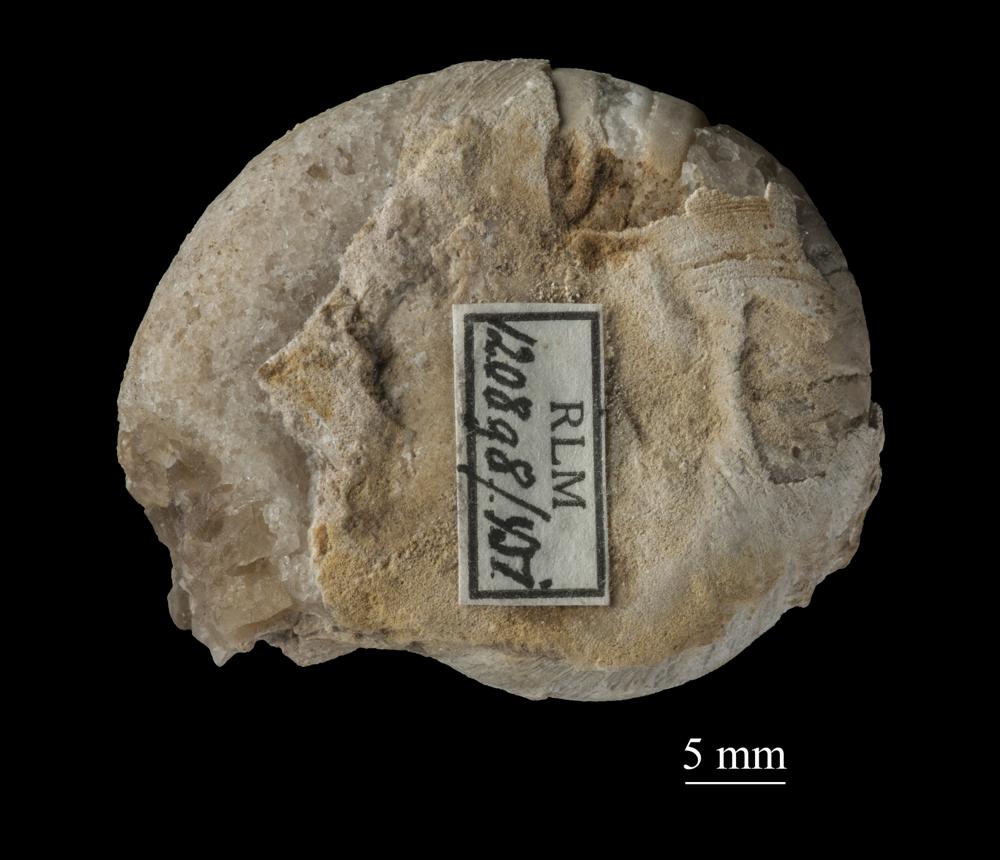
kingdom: Animalia
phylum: Mollusca
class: Cephalopoda
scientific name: Cephalopoda
